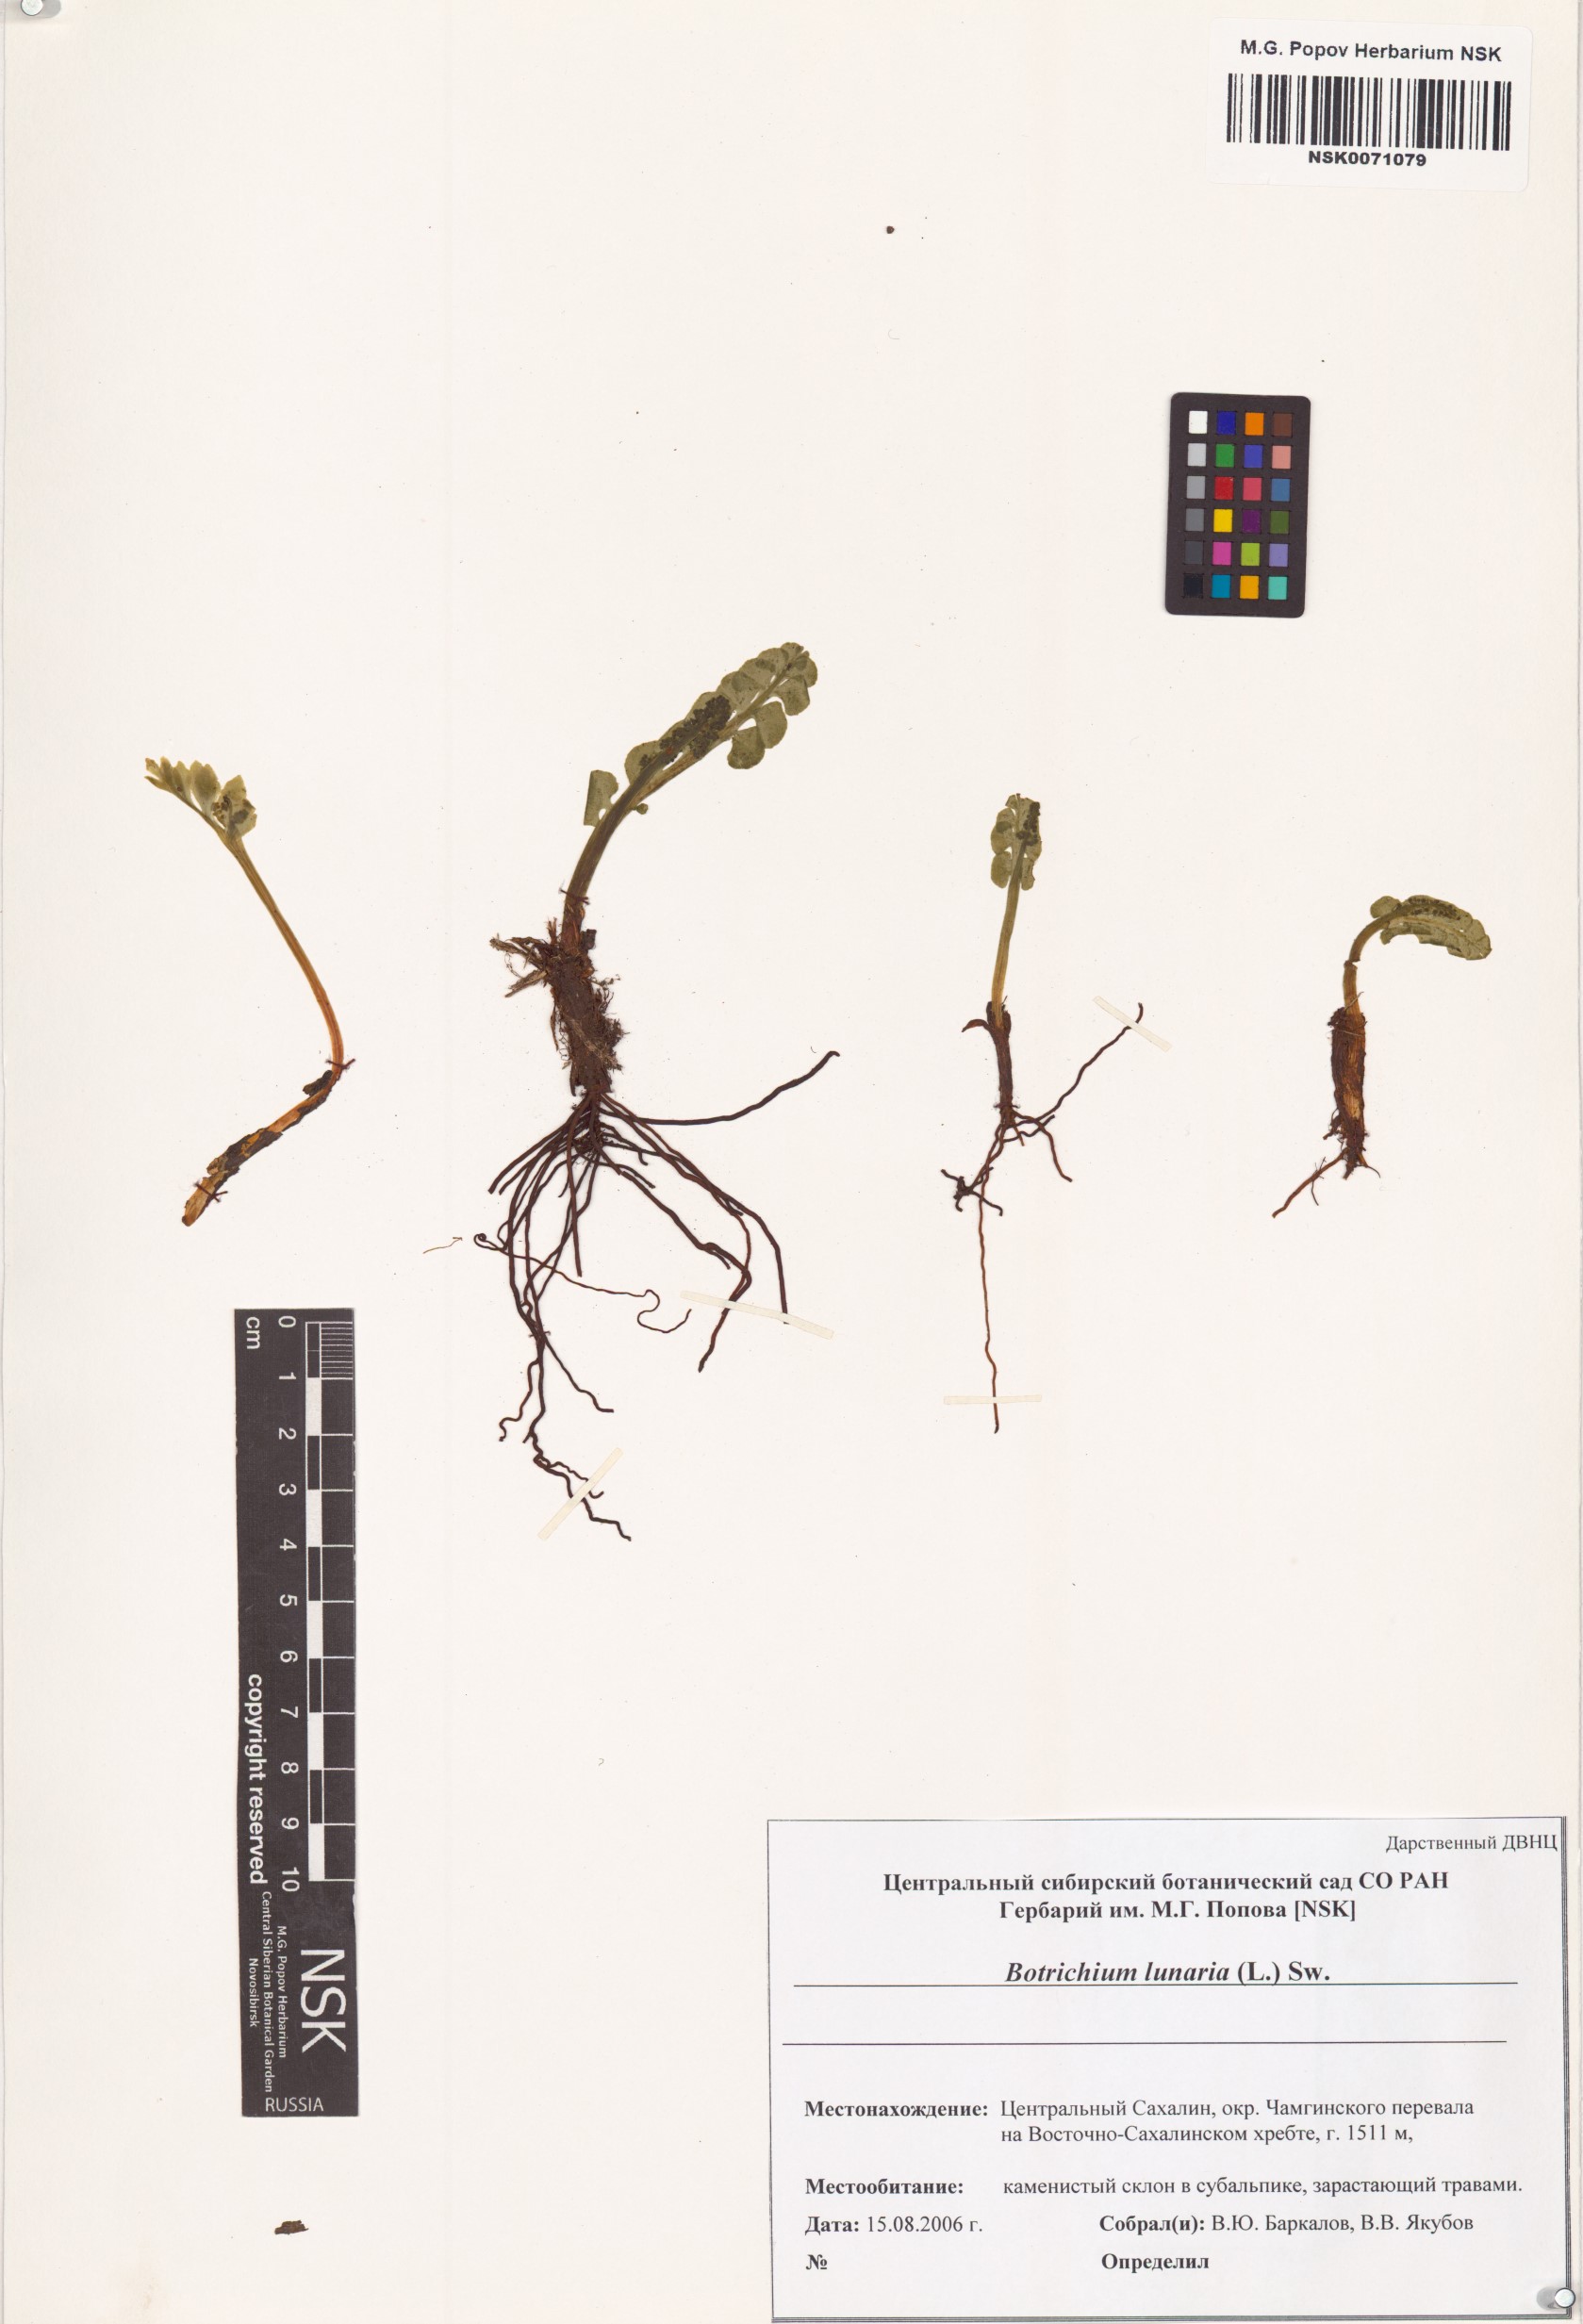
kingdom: Plantae
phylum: Tracheophyta
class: Polypodiopsida
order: Ophioglossales
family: Ophioglossaceae
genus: Botrychium
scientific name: Botrychium lunaria
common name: Moonwort
